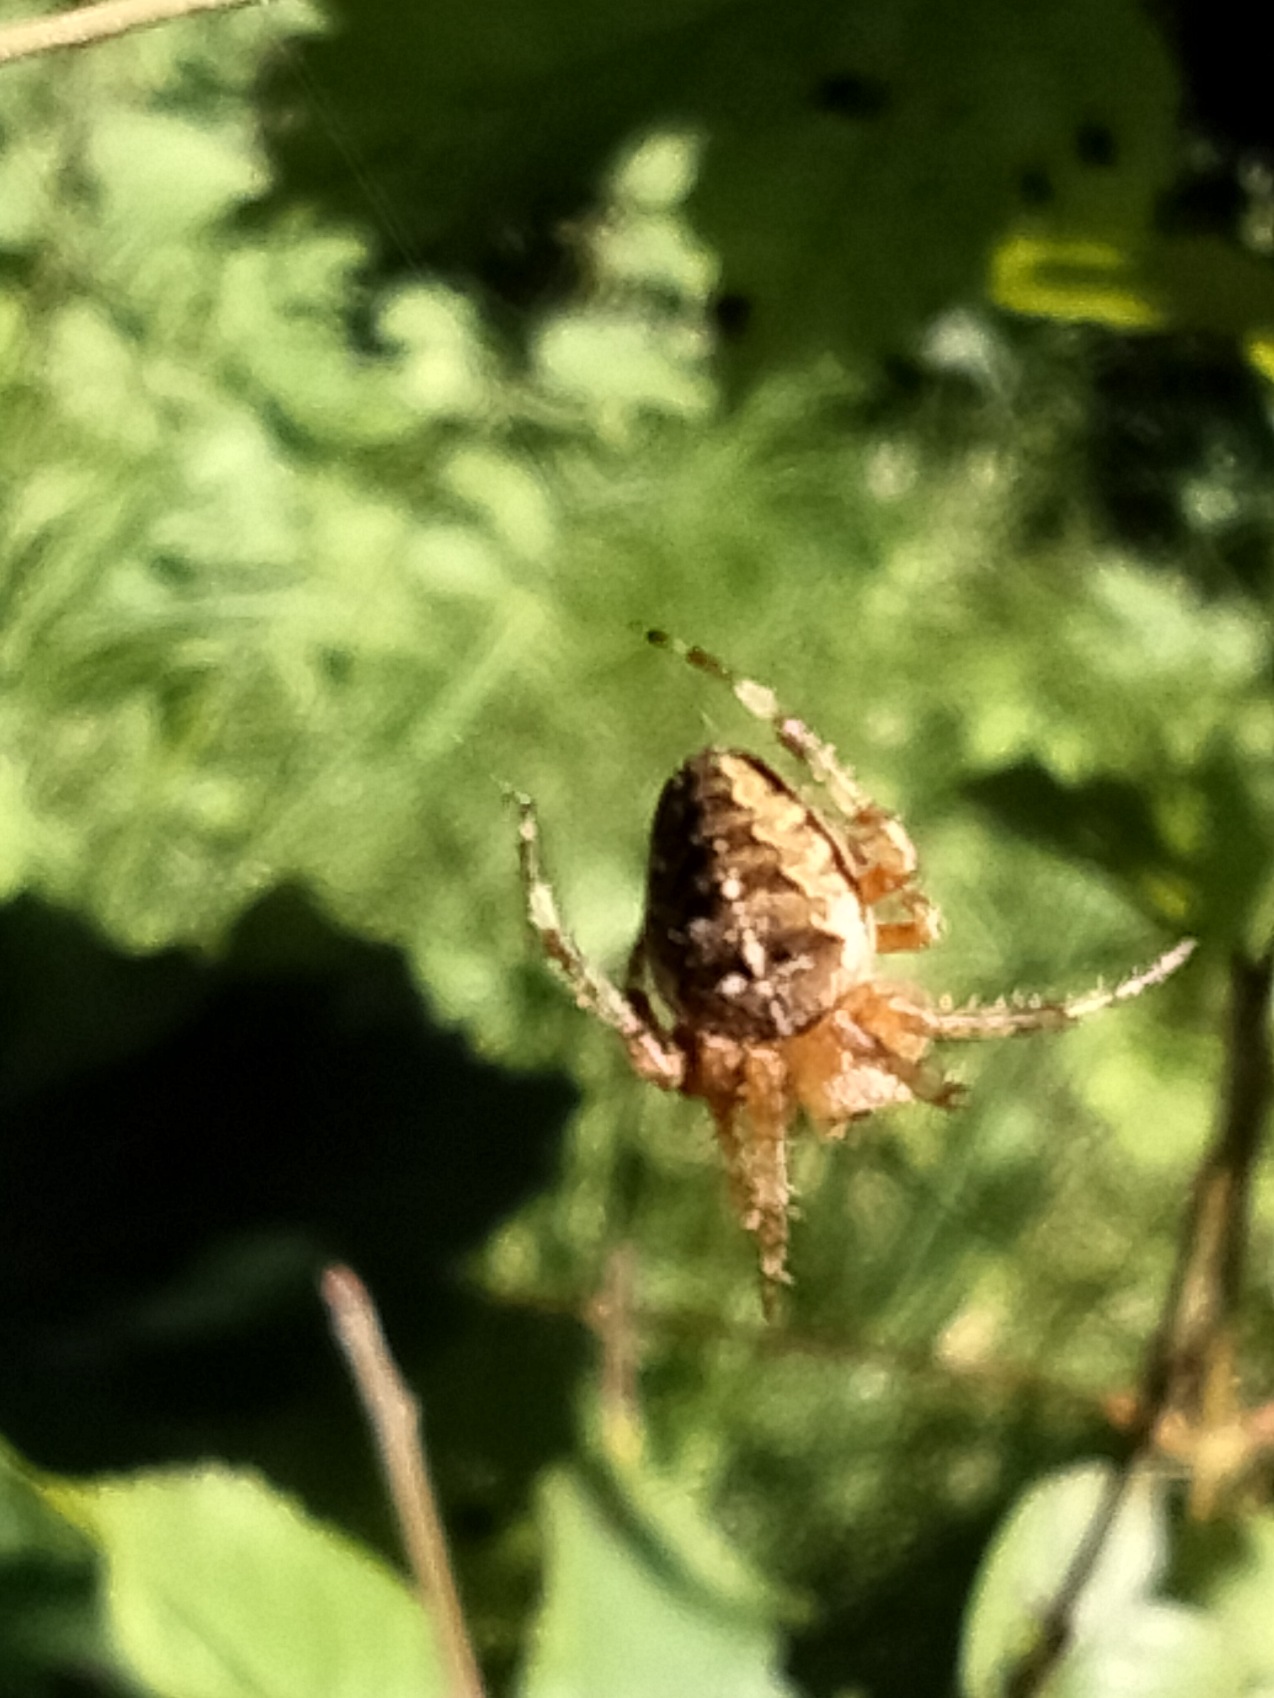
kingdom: Animalia
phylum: Arthropoda
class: Arachnida
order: Araneae
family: Araneidae
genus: Araneus
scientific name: Araneus diadematus
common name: Korsedderkop
